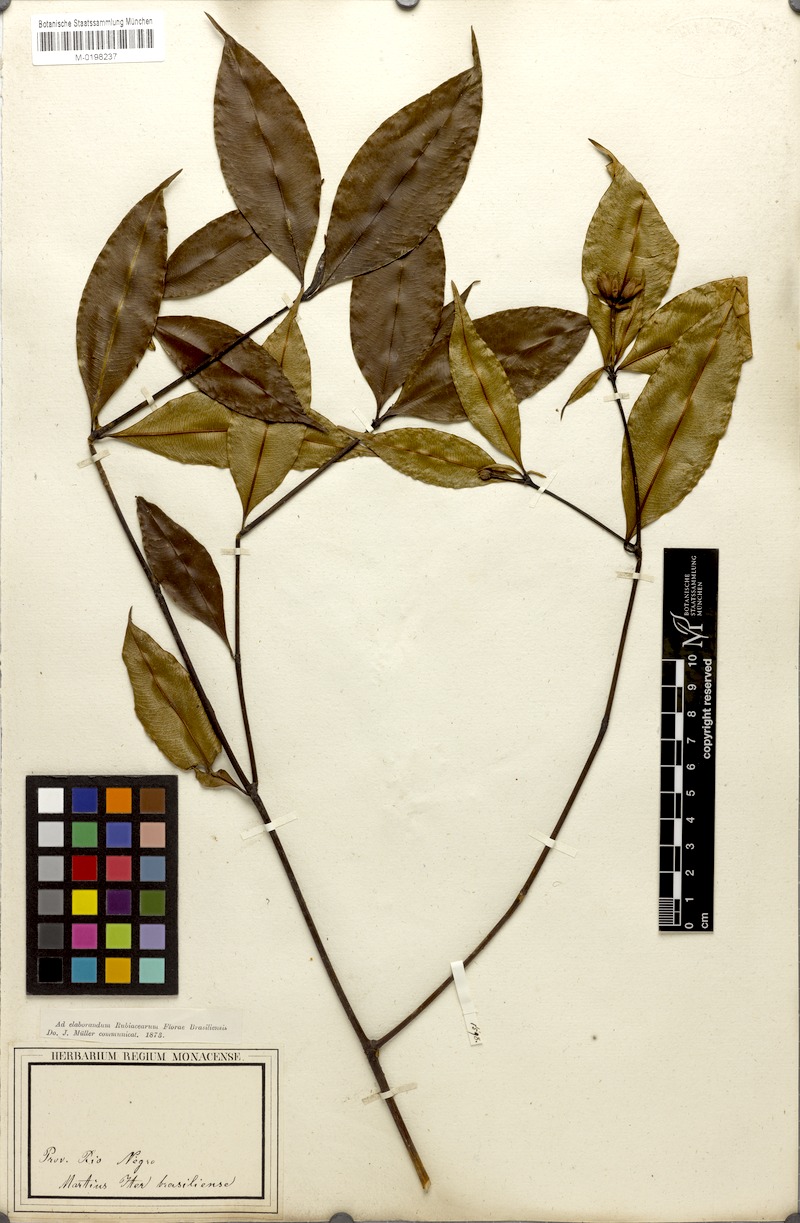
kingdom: Plantae
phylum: Tracheophyta
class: Magnoliopsida
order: Gentianales
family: Rubiaceae
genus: Palicourea
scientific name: Palicourea triadica
